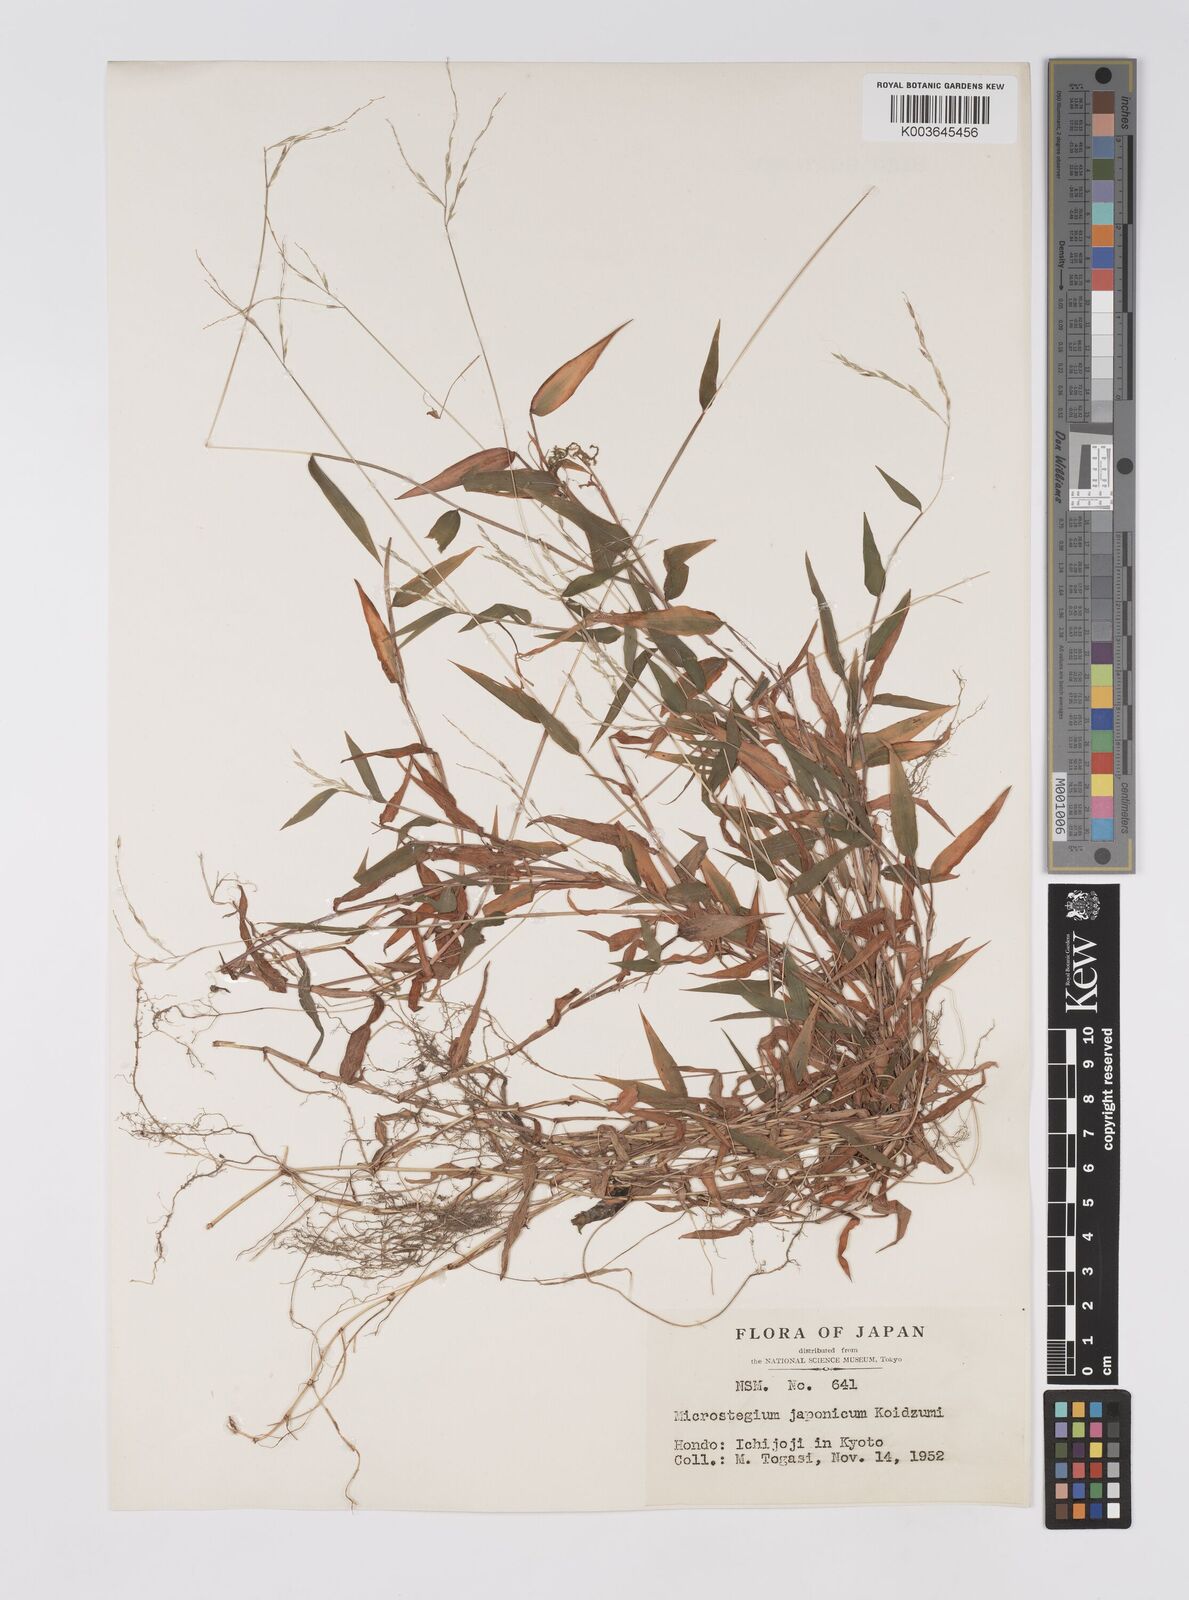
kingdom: Plantae
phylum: Tracheophyta
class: Liliopsida
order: Poales
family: Poaceae
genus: Microstegium
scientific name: Microstegium japonicum
